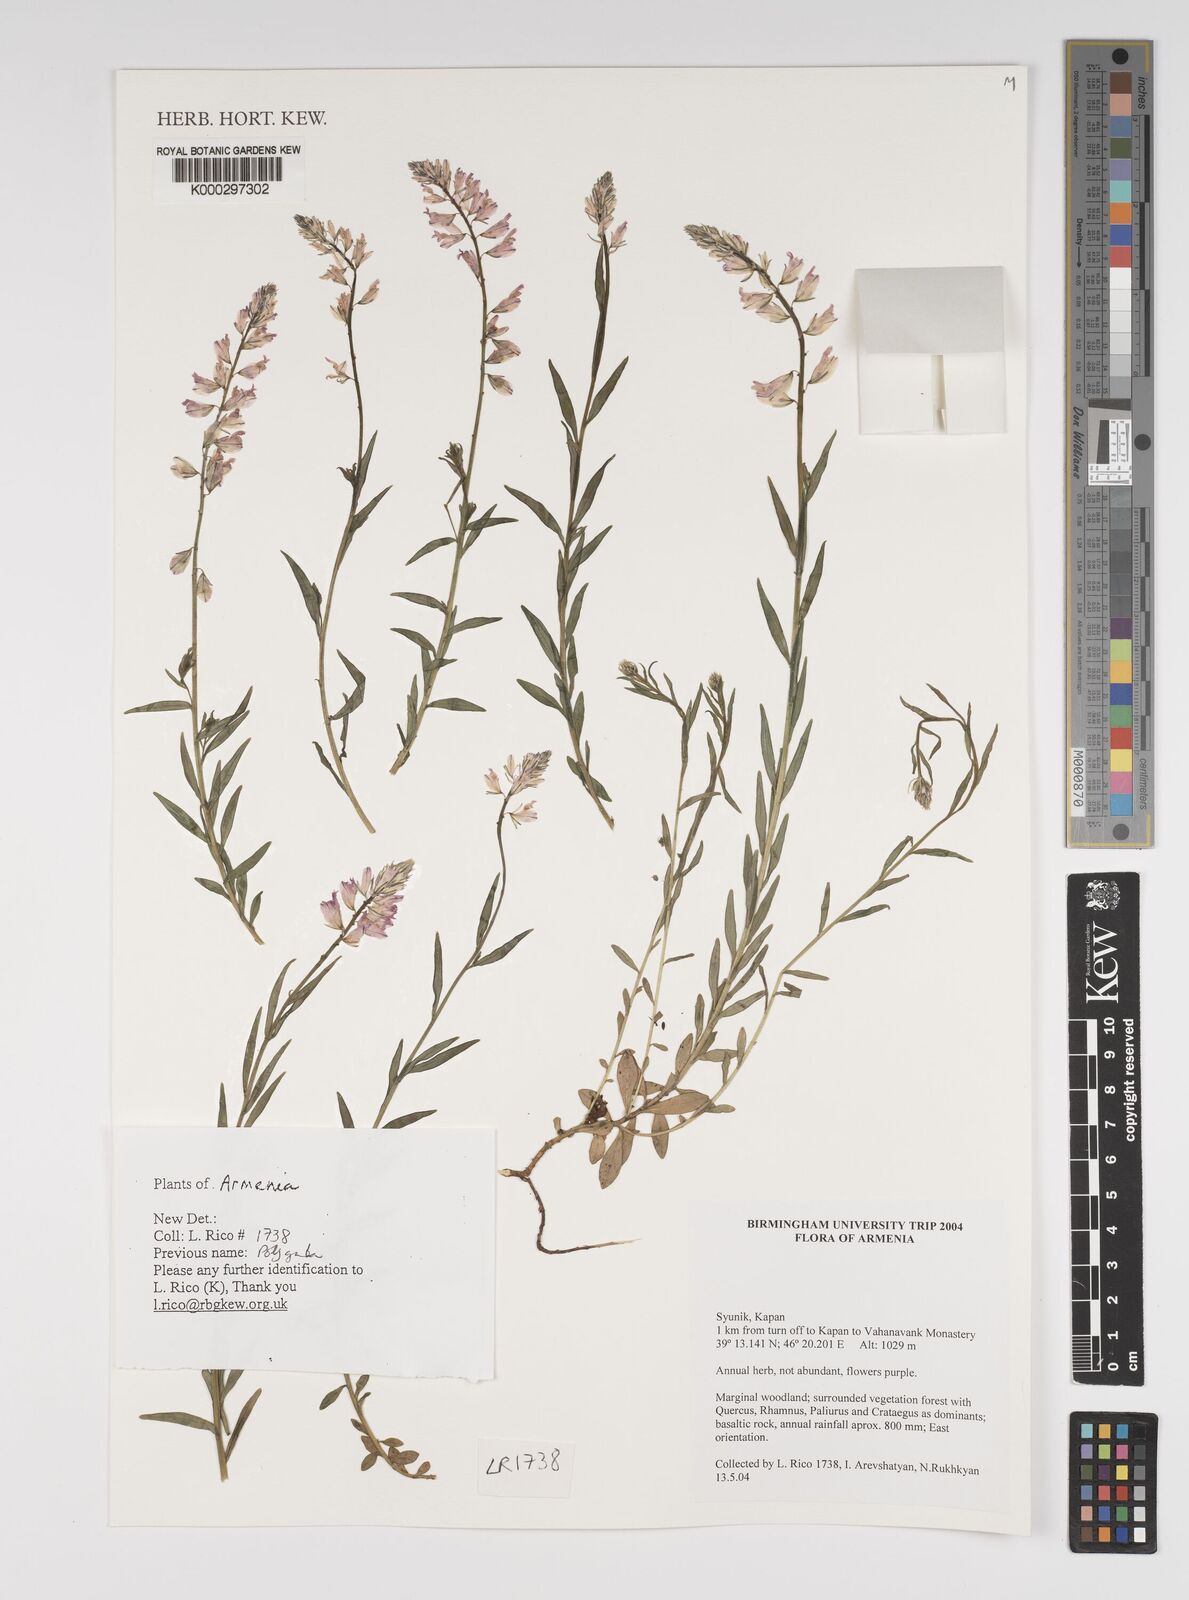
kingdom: Plantae
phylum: Tracheophyta
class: Magnoliopsida
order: Fabales
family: Polygalaceae
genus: Polygala
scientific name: Polygala
